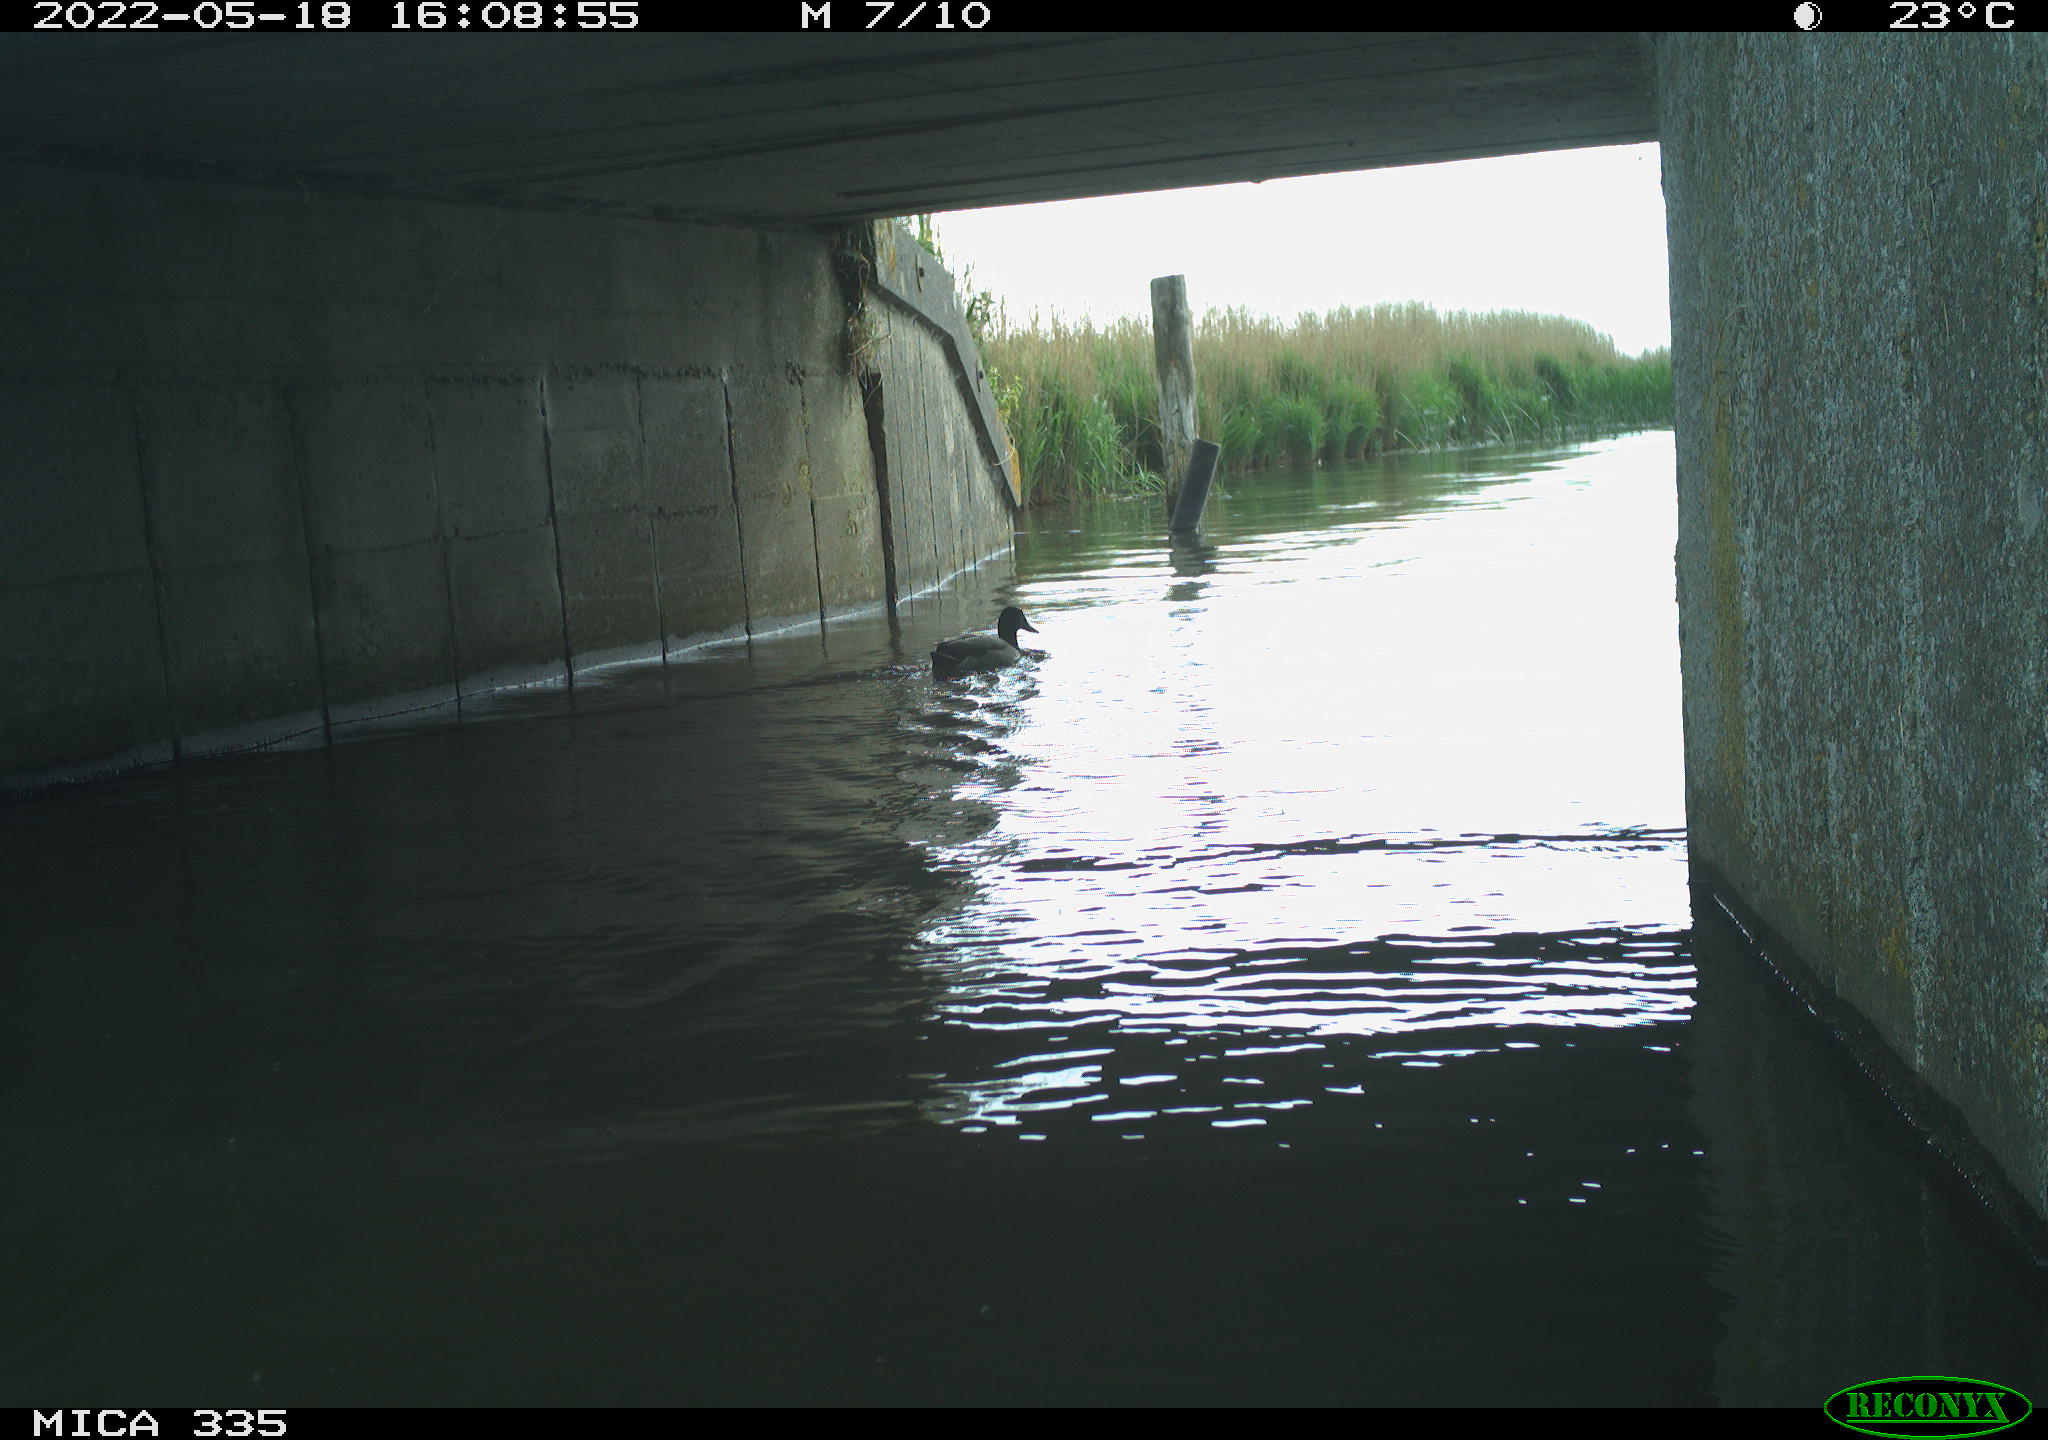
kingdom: Animalia
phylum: Chordata
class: Aves
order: Anseriformes
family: Anatidae
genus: Anas
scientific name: Anas platyrhynchos
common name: Mallard
